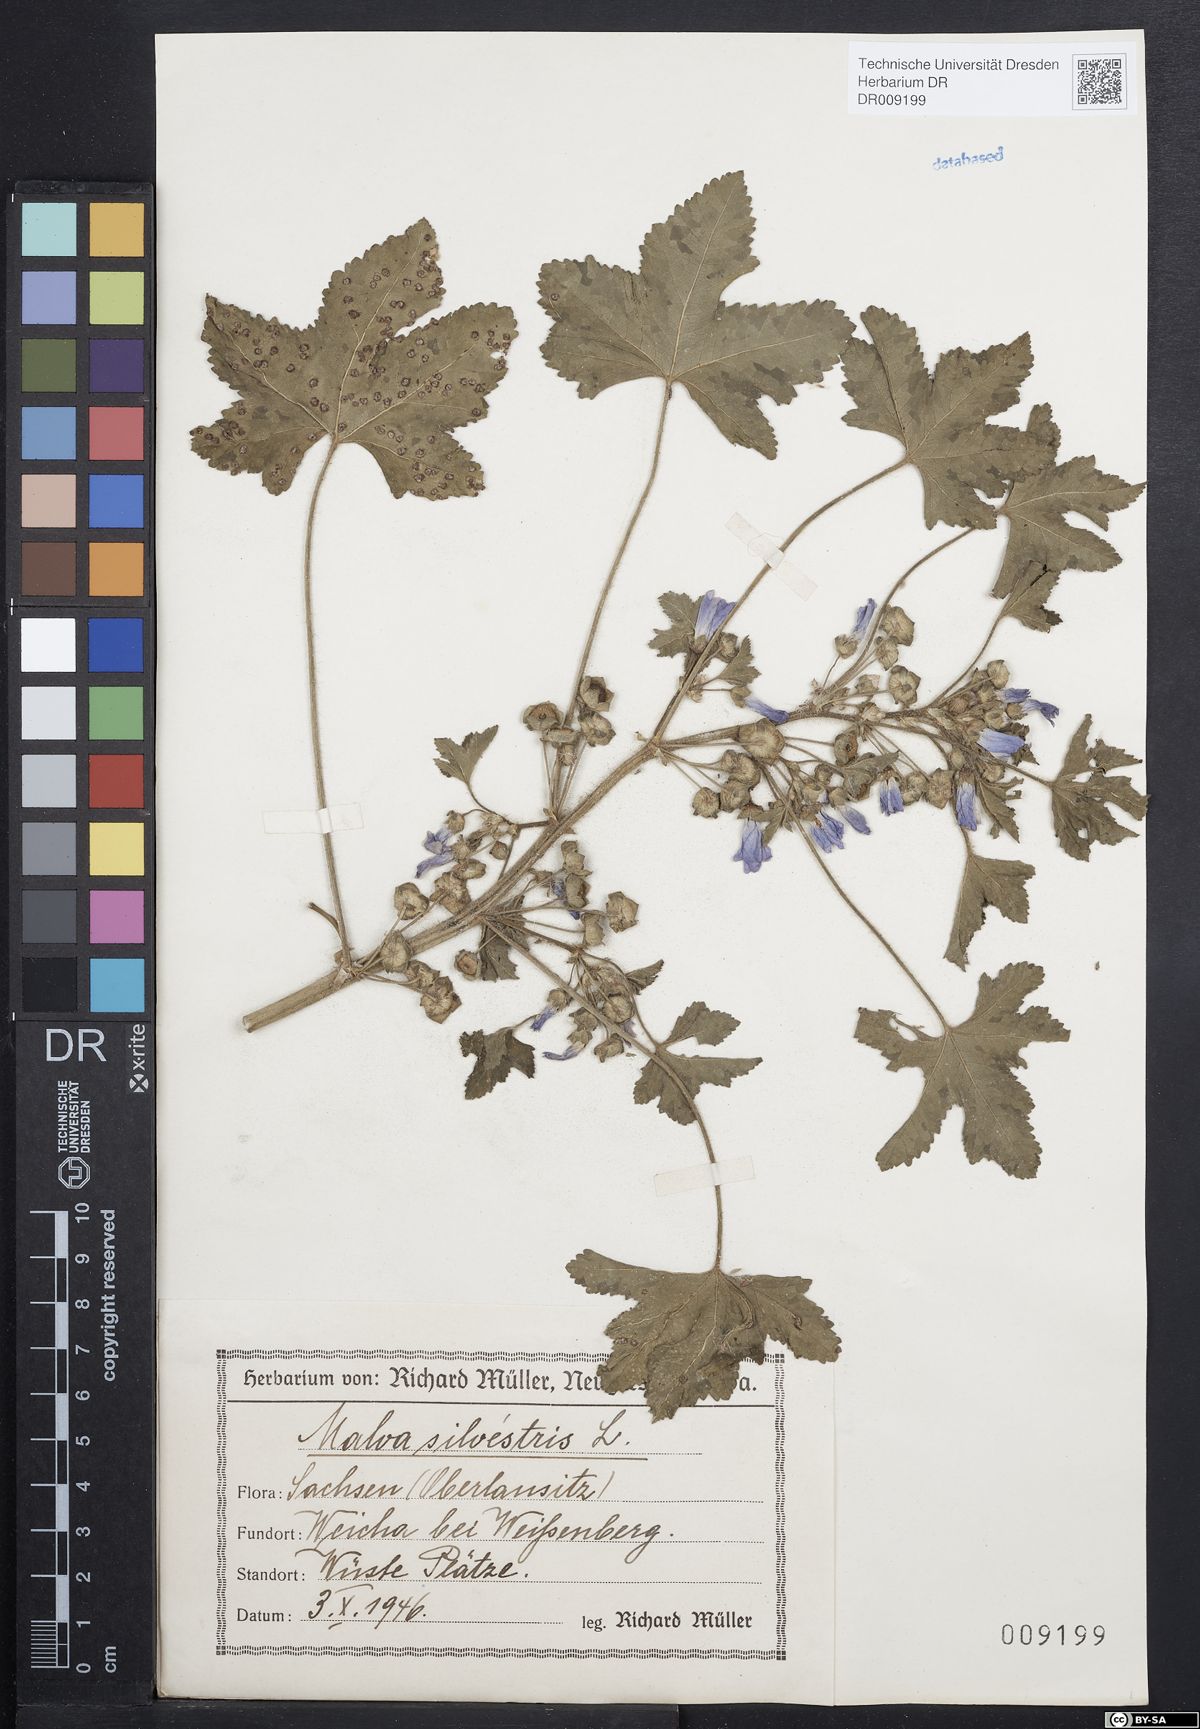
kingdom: Plantae
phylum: Tracheophyta
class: Magnoliopsida
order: Malvales
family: Malvaceae
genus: Malva
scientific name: Malva sylvestris
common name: Common mallow
